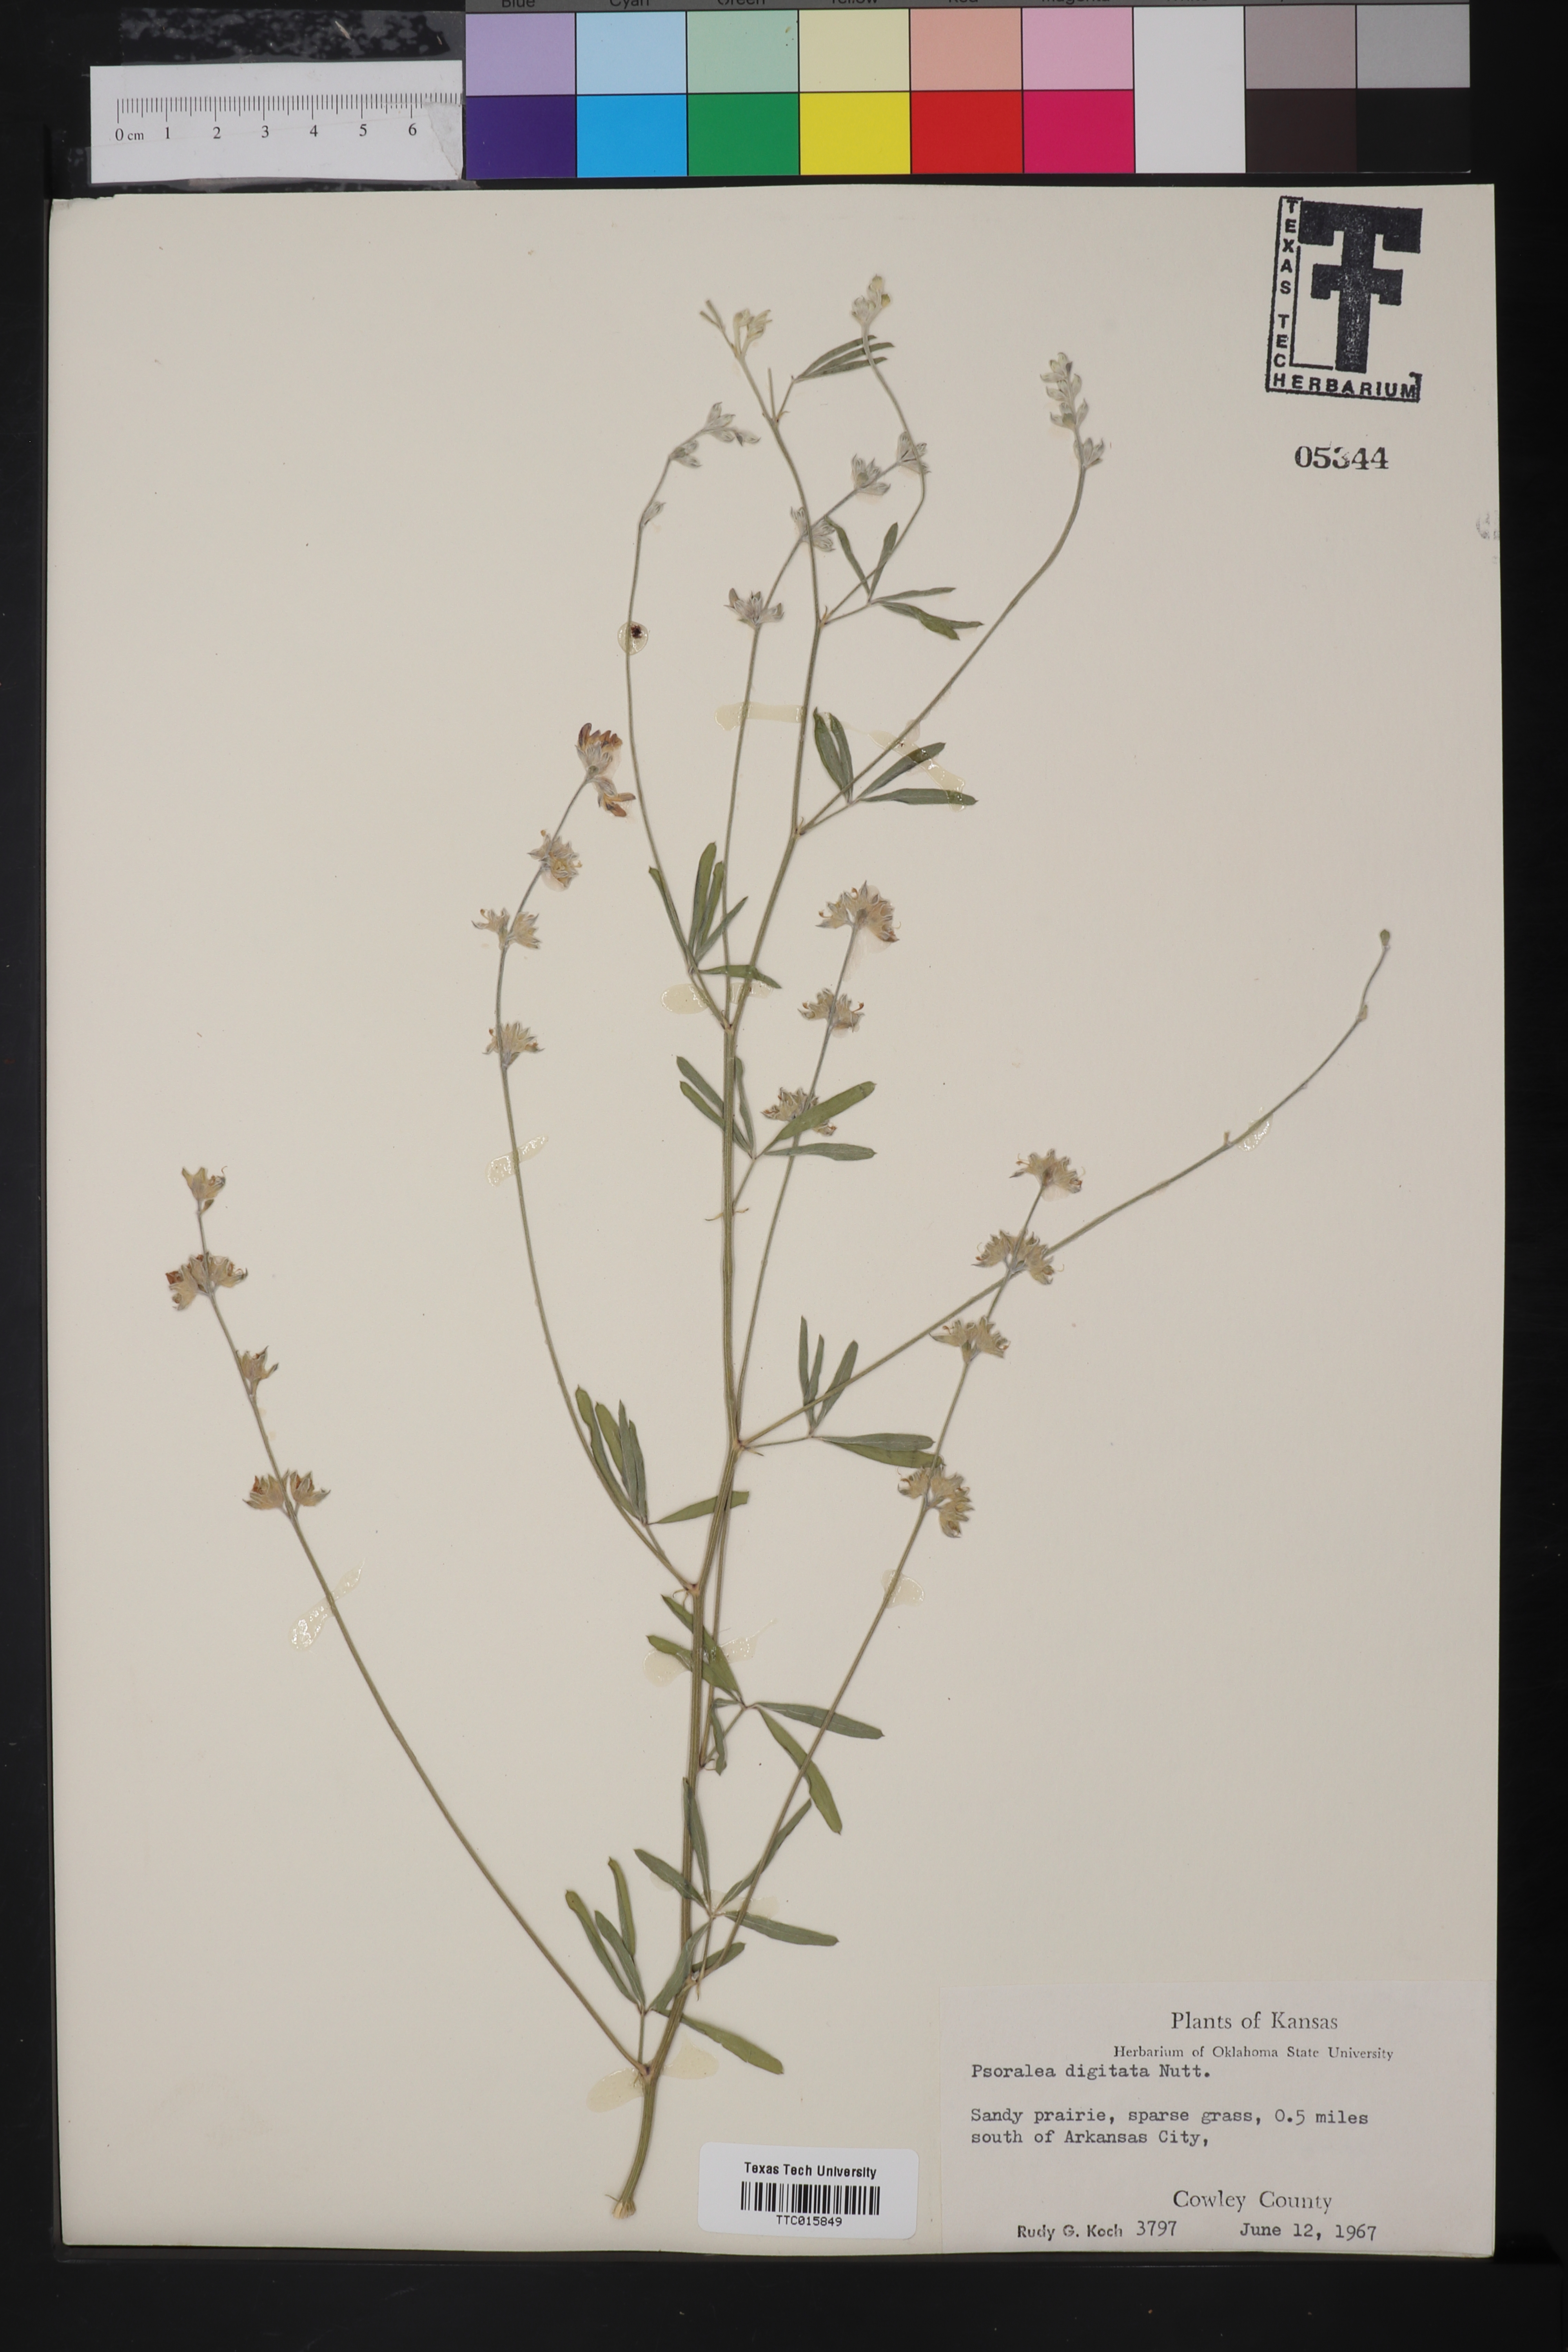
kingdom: Plantae
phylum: Tracheophyta
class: Magnoliopsida
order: Fabales
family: Fabaceae
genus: Pediomelum
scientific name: Pediomelum digitatum
